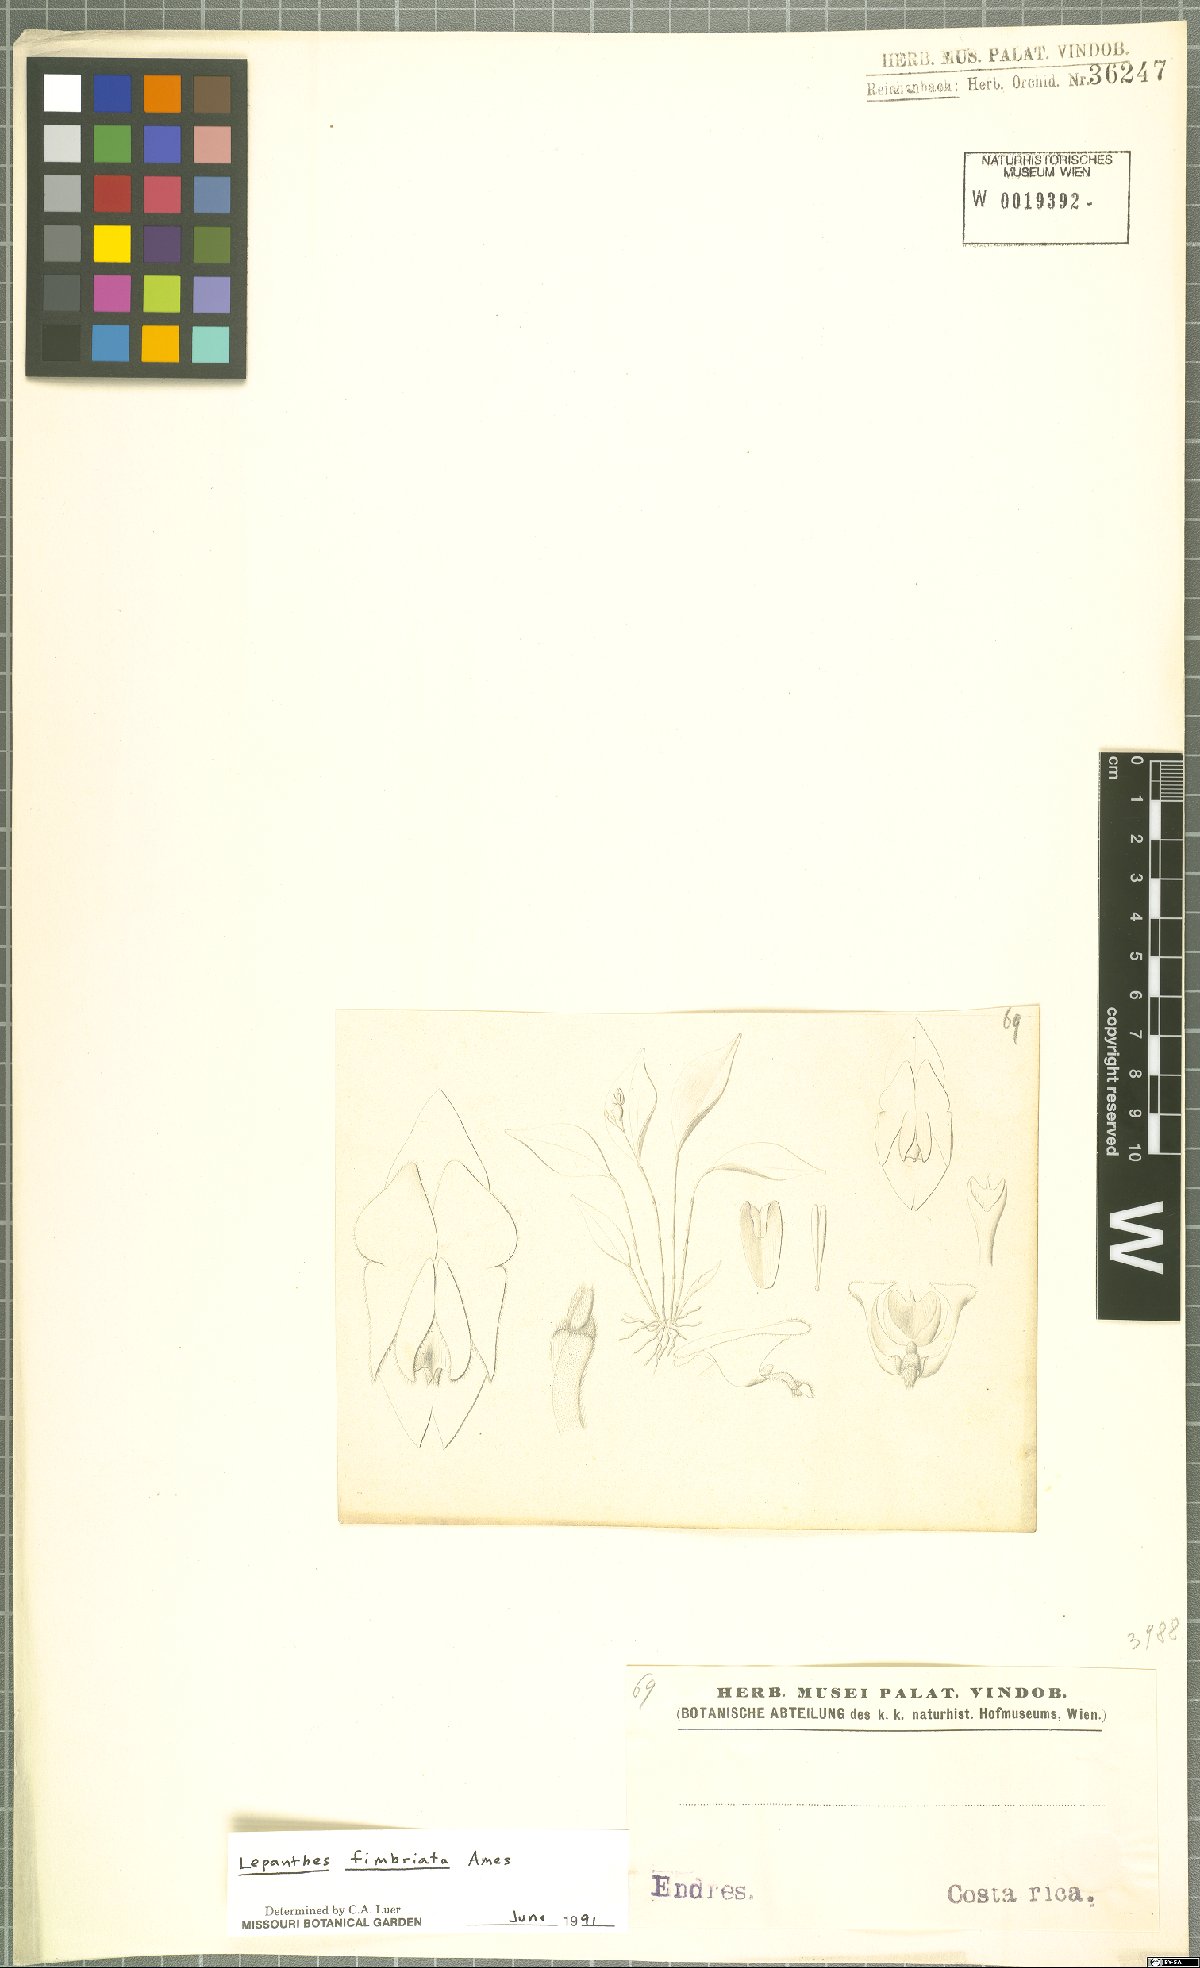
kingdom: Plantae
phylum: Tracheophyta
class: Liliopsida
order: Asparagales
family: Orchidaceae
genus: Lepanthes
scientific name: Lepanthes fimbriata
